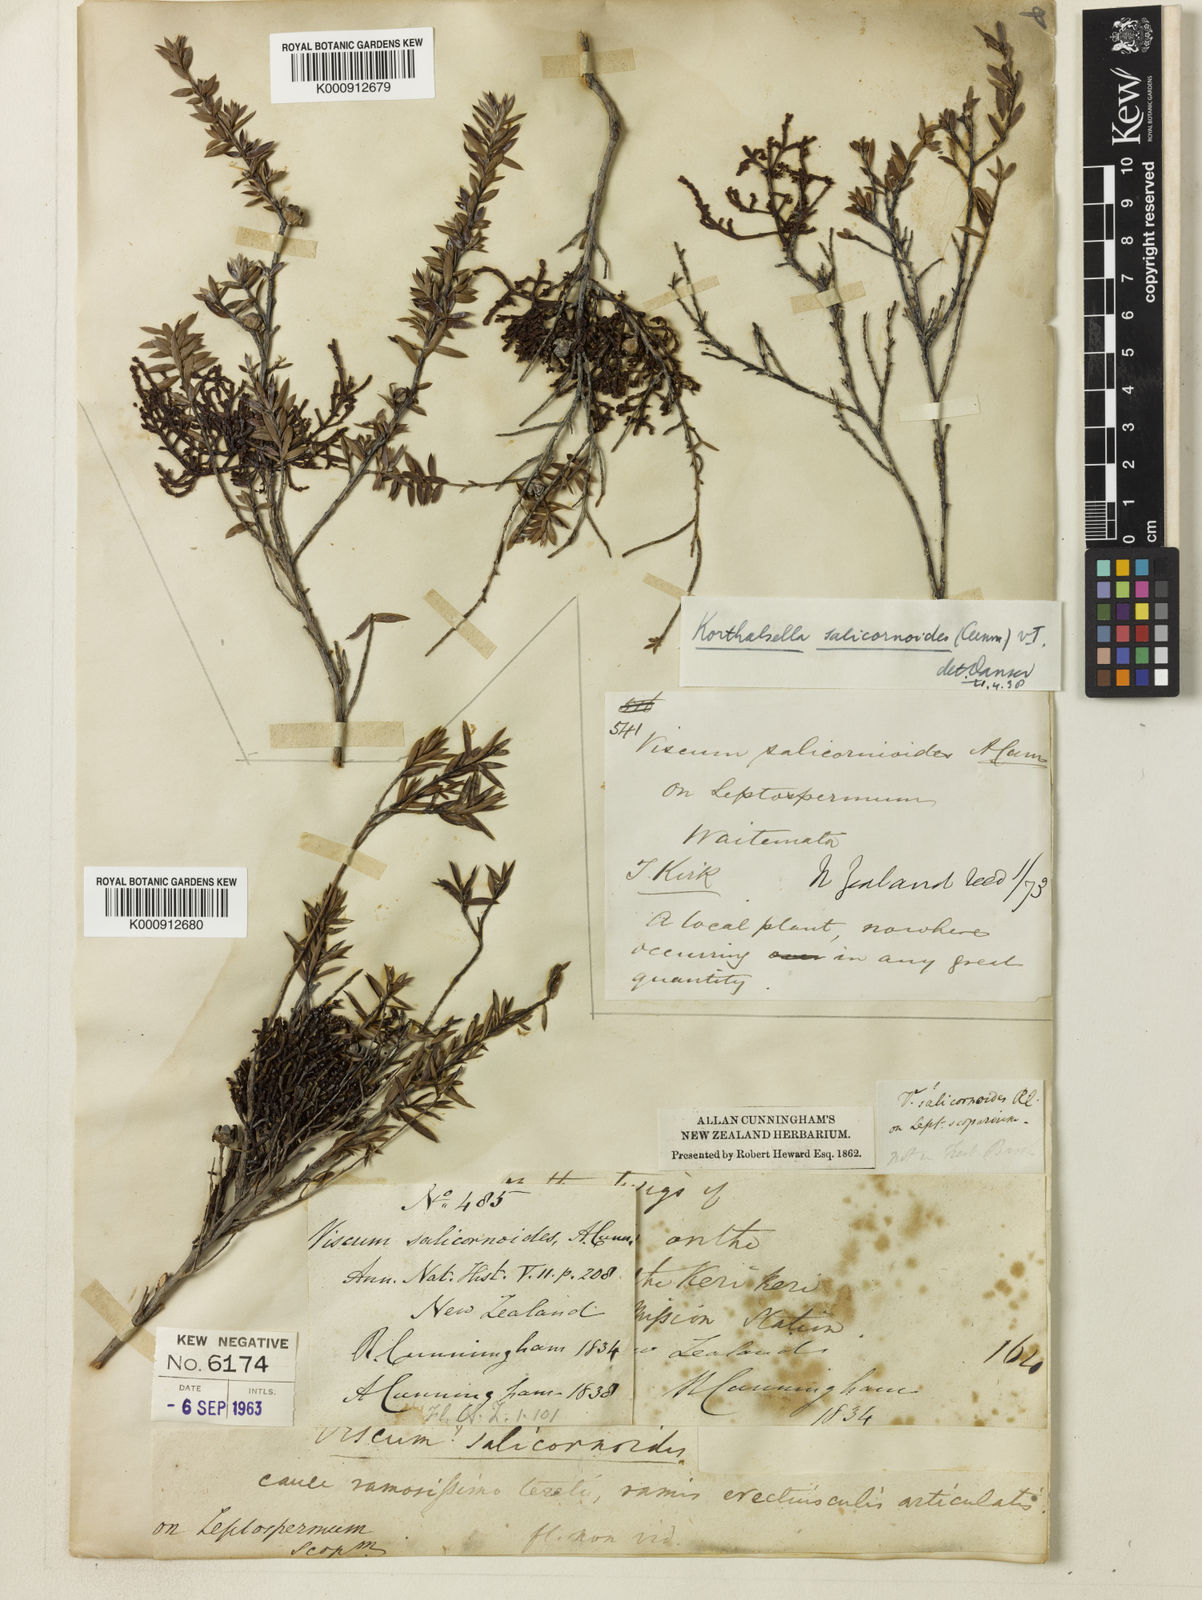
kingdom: Plantae
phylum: Tracheophyta
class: Magnoliopsida
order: Santalales
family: Viscaceae
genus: Korthalsella
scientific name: Korthalsella salicornioides
